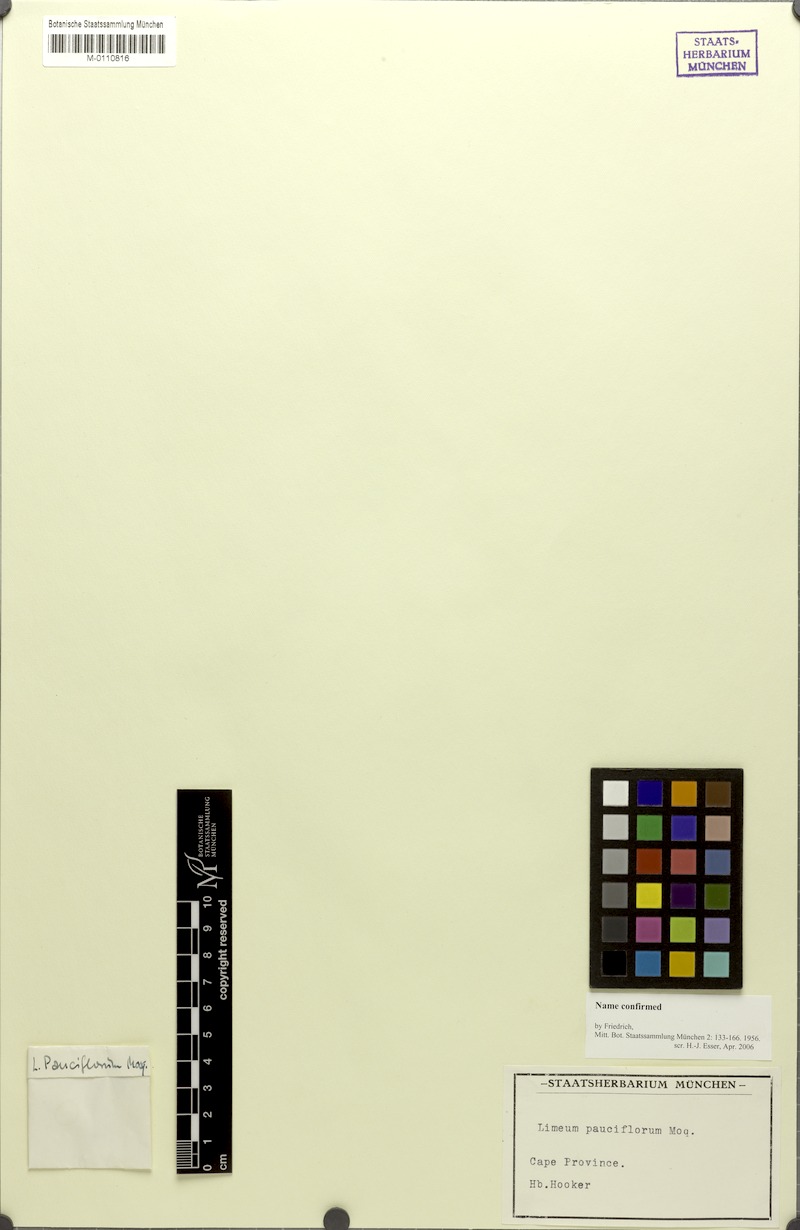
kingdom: Plantae
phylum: Tracheophyta
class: Magnoliopsida
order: Caryophyllales
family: Limeaceae
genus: Limeum
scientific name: Limeum pauciflorum
